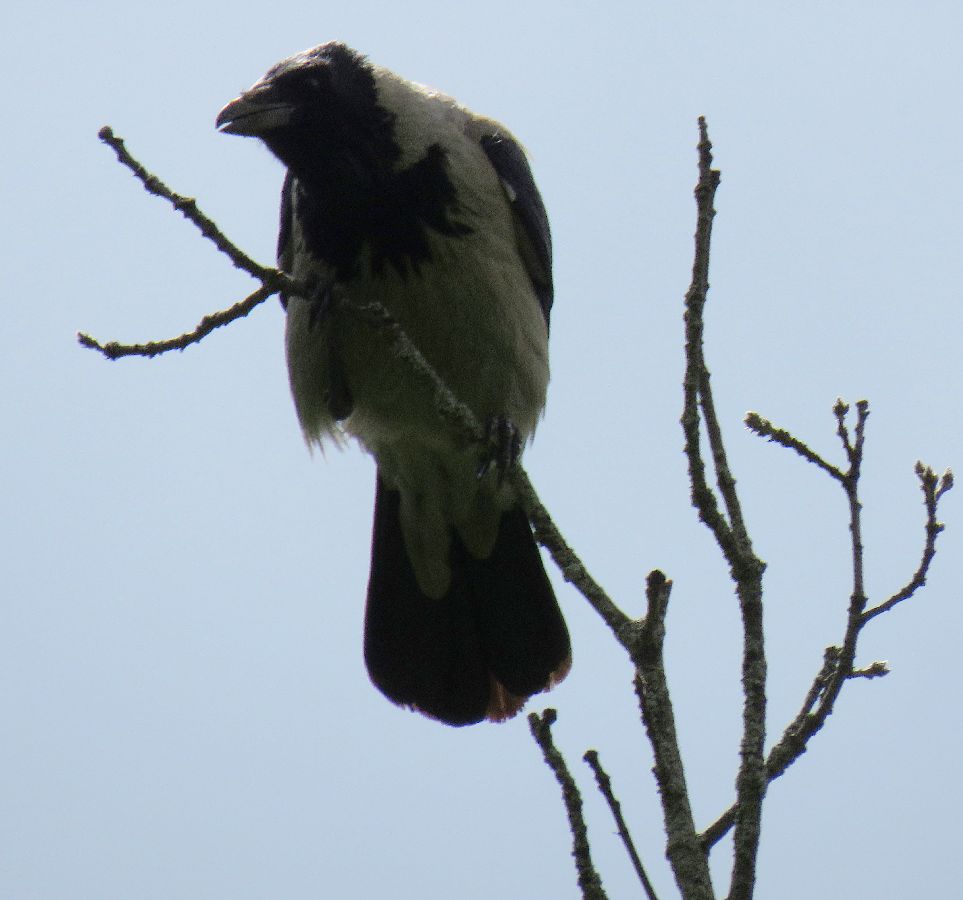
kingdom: Animalia
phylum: Chordata
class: Aves
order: Passeriformes
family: Corvidae
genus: Corvus
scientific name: Corvus cornix
